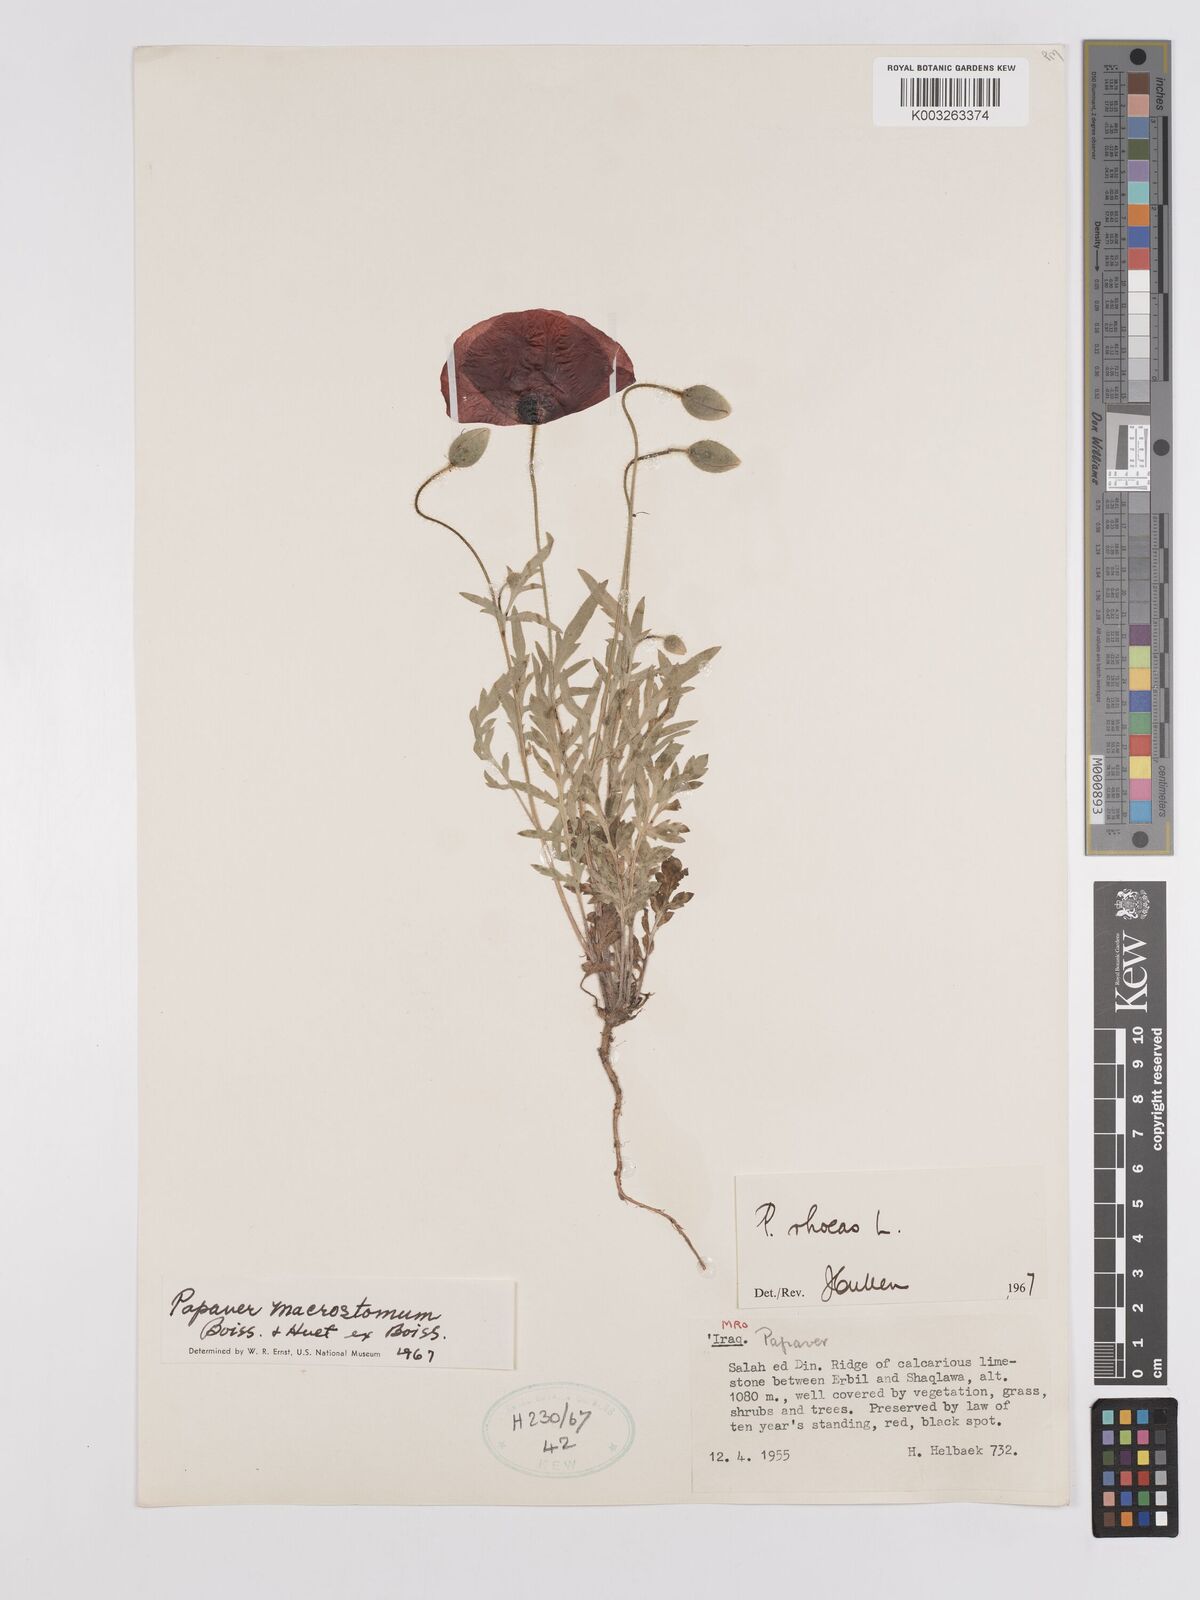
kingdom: Plantae
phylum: Tracheophyta
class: Magnoliopsida
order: Ranunculales
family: Papaveraceae
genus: Papaver
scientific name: Papaver rhoeas
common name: Corn poppy
